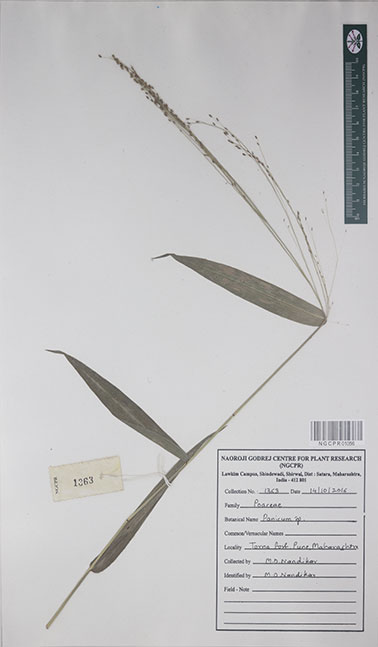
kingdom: Plantae
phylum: Tracheophyta
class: Liliopsida
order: Poales
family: Poaceae
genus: Panicum
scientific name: Panicum
